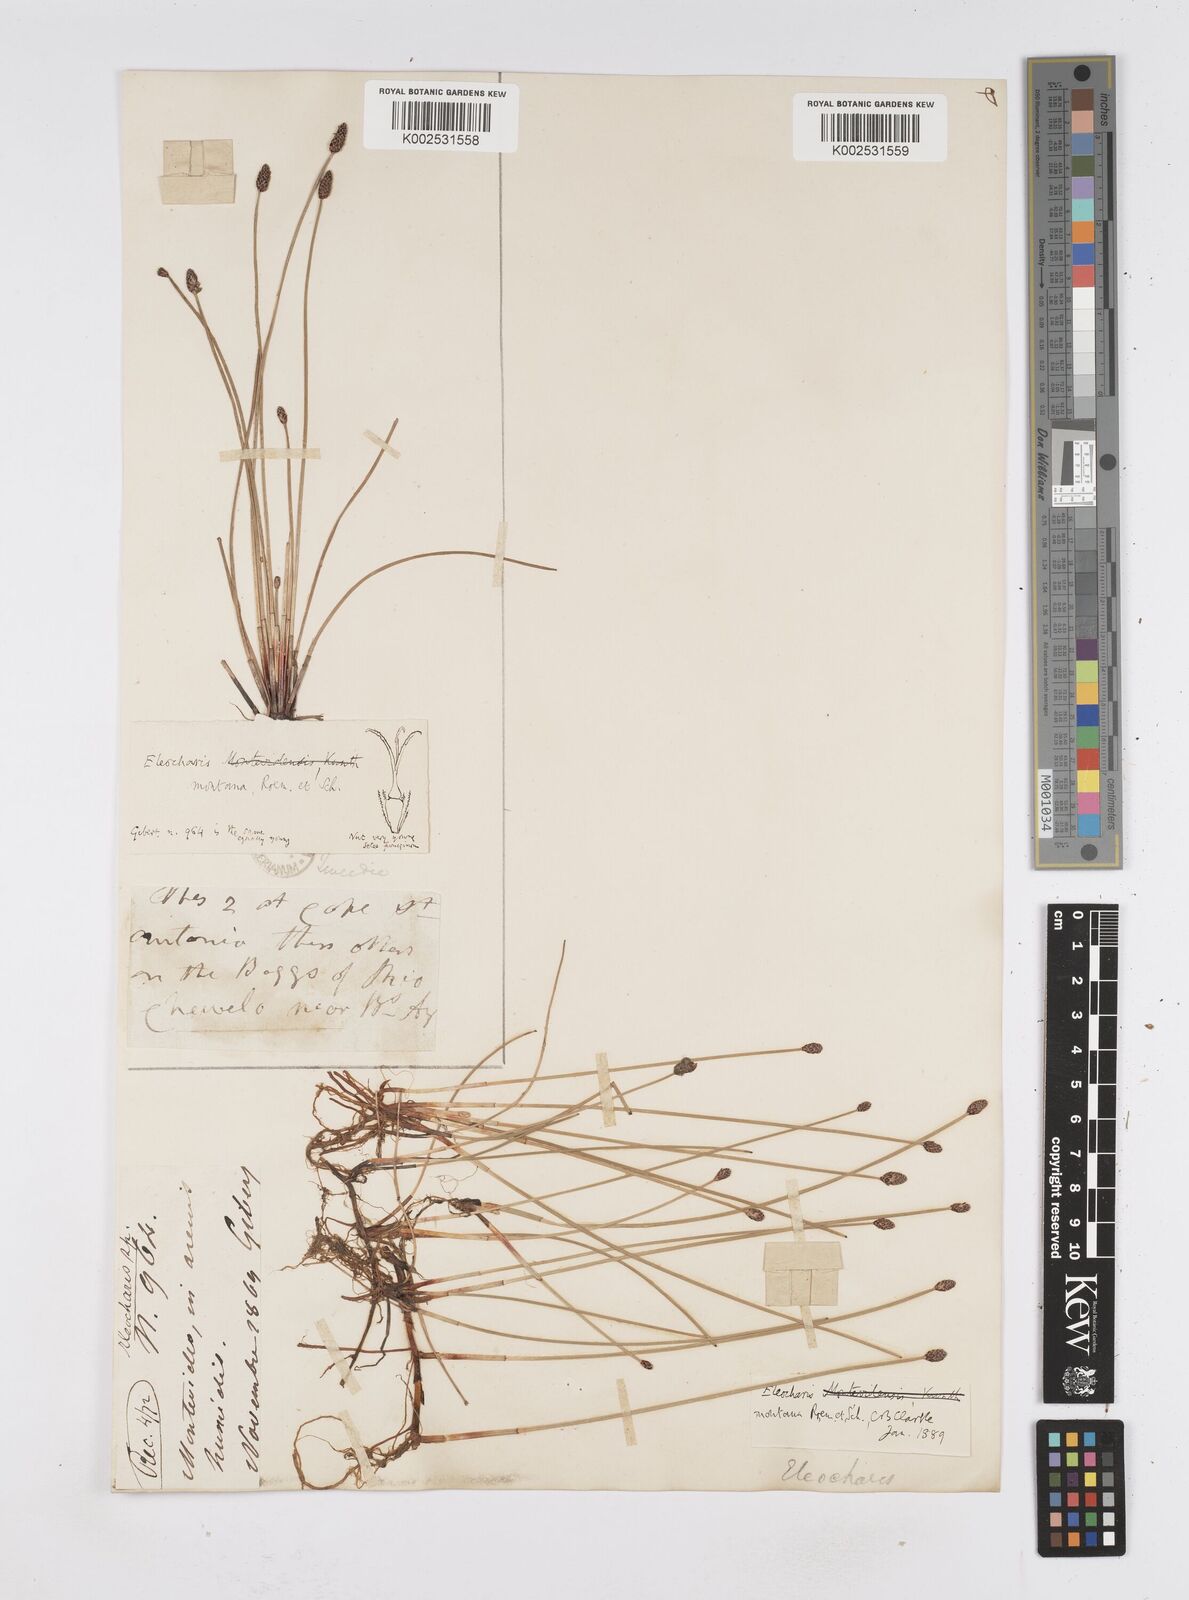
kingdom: Plantae
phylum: Tracheophyta
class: Liliopsida
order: Poales
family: Cyperaceae
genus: Eleocharis
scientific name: Eleocharis montana
